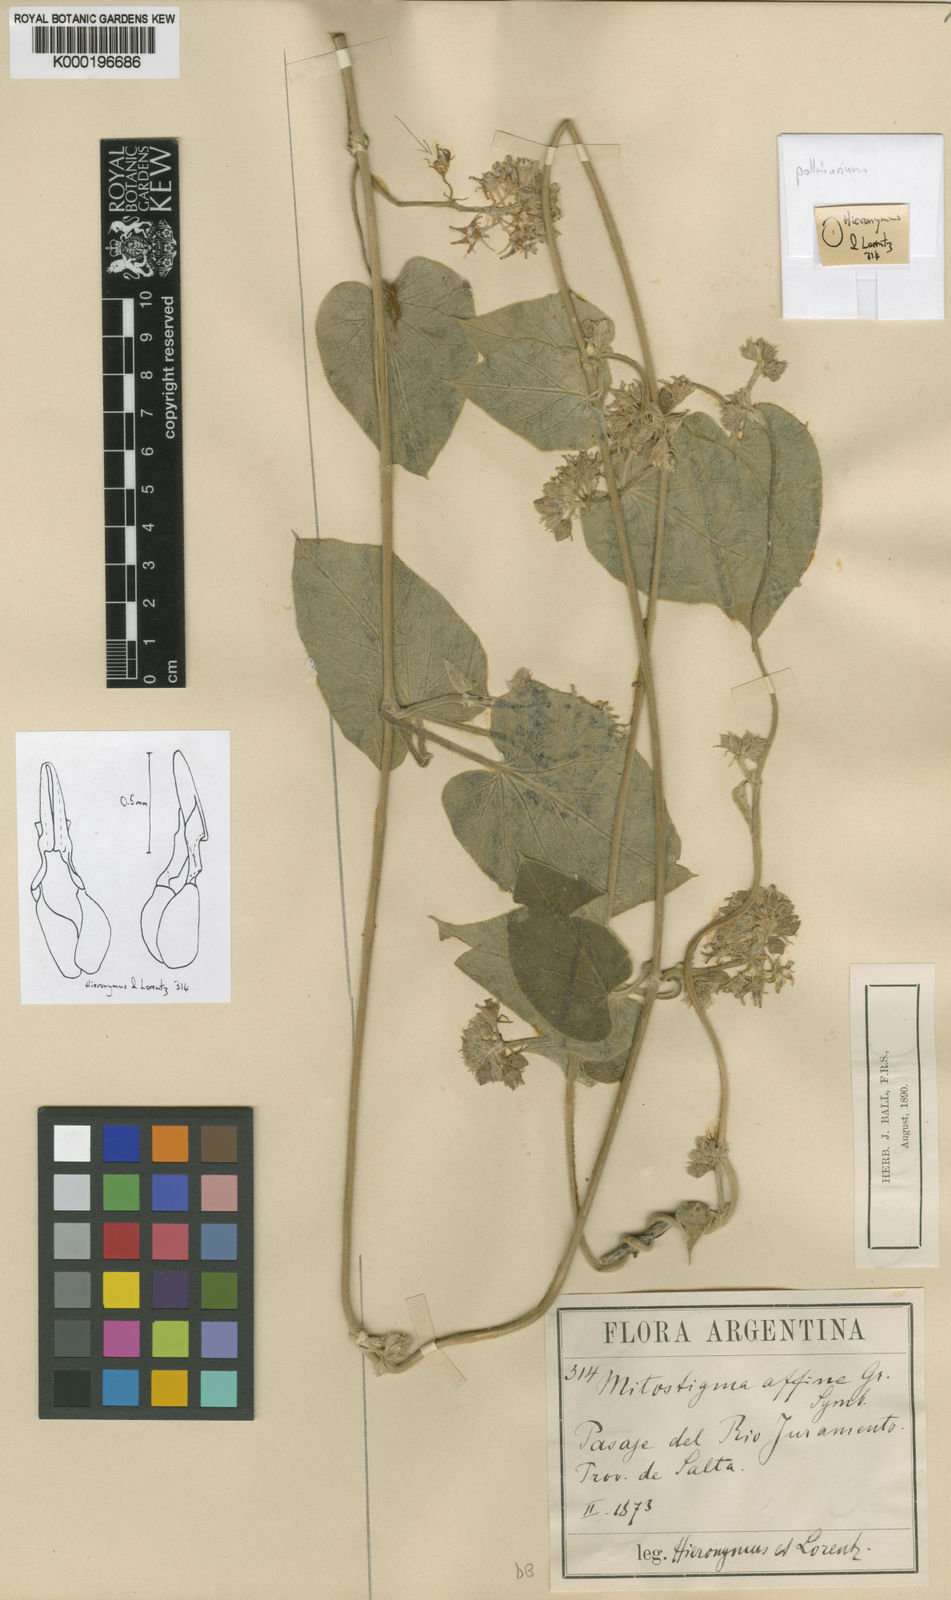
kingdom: Plantae
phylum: Tracheophyta
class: Magnoliopsida
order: Gentianales
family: Apocynaceae
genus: Philibertia
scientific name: Philibertia affinis
